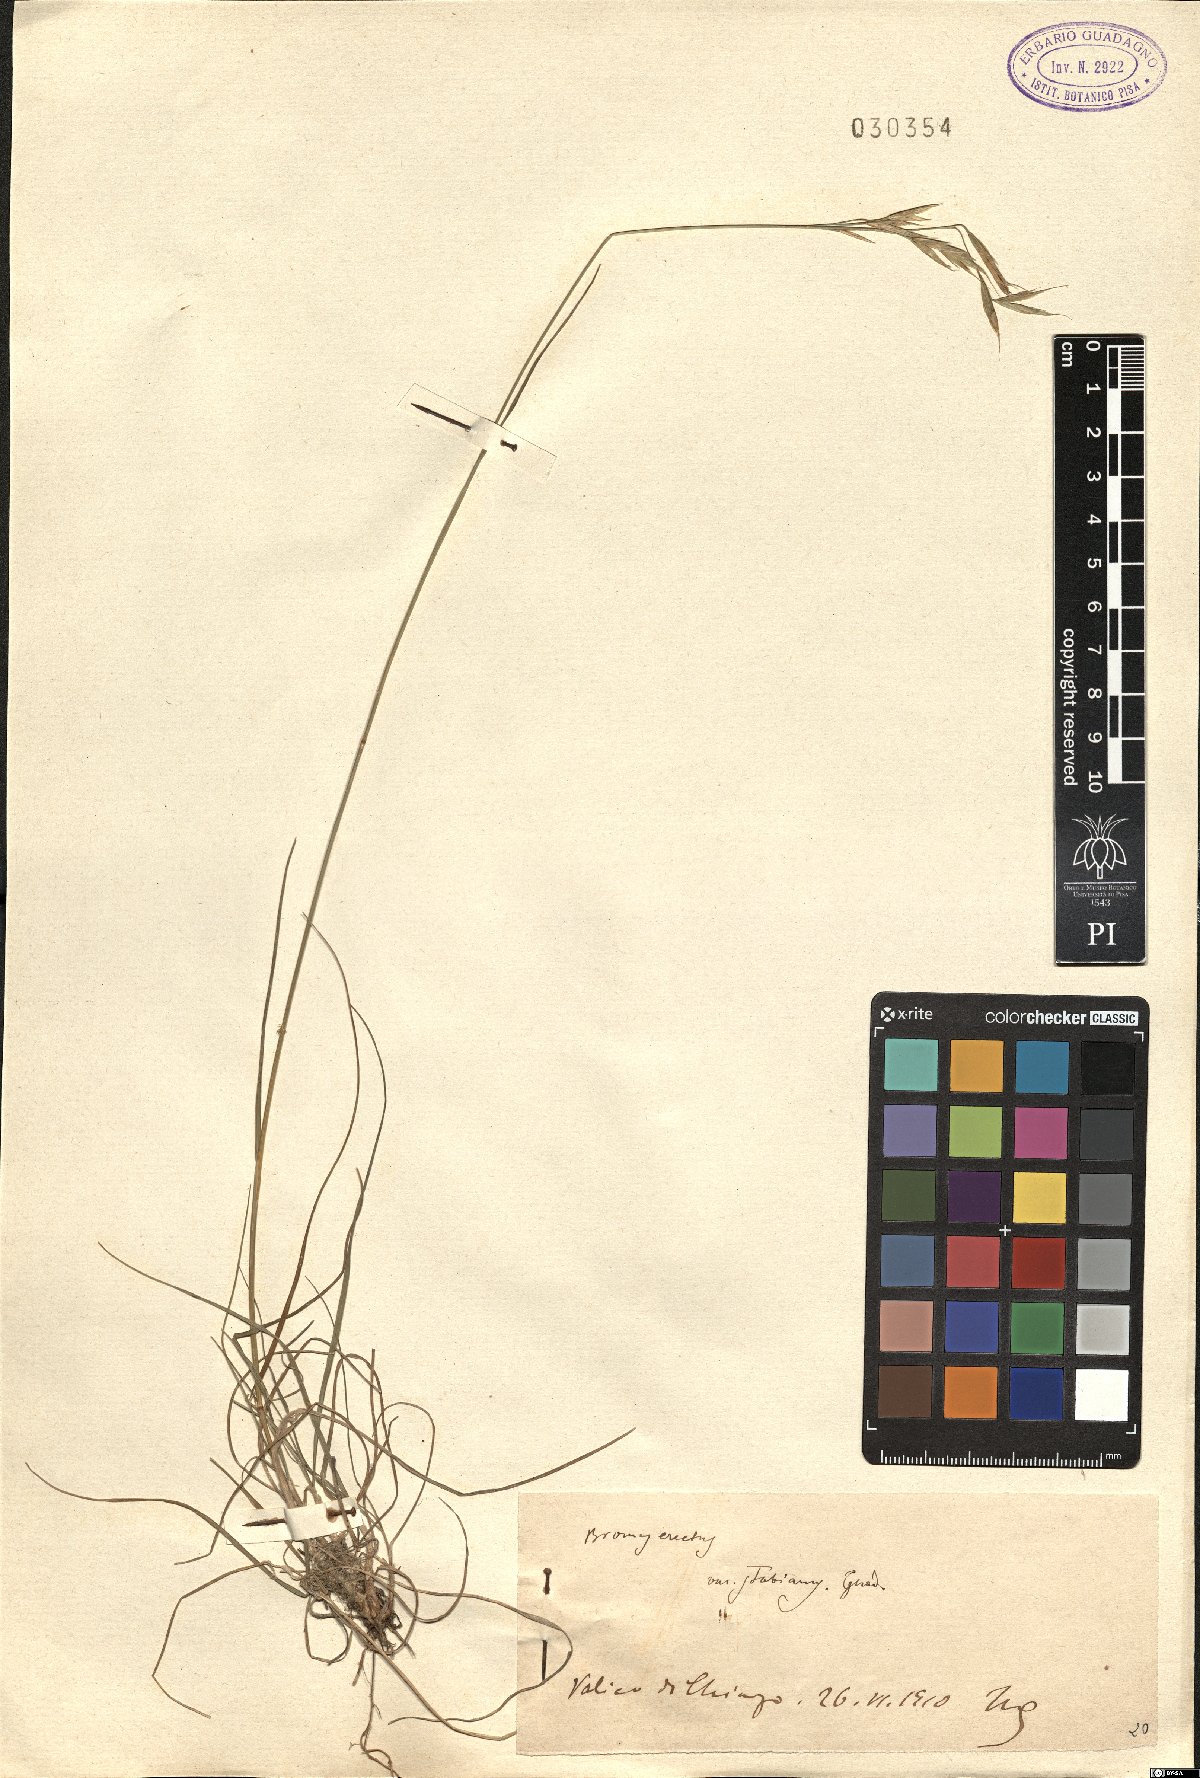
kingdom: Plantae
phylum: Tracheophyta
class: Liliopsida
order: Poales
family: Poaceae
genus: Bromus
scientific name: Bromus erectus
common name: Erect brome
